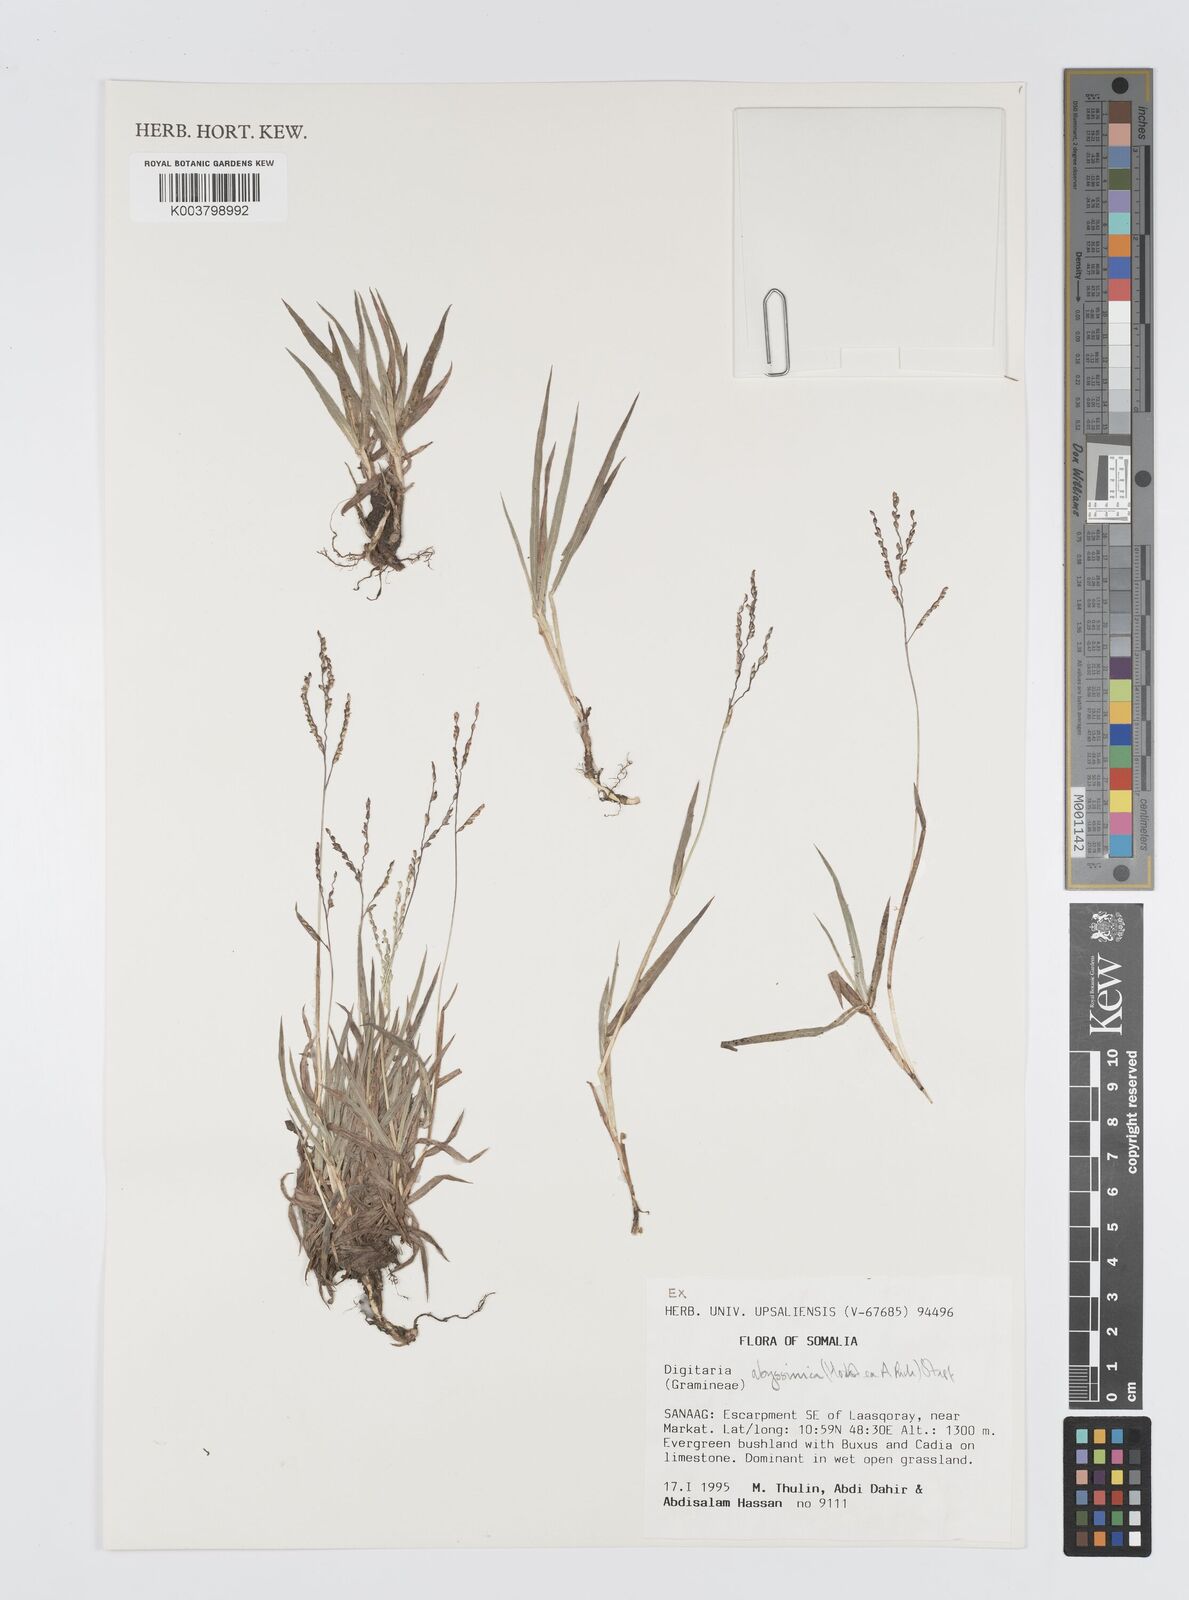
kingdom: Plantae
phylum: Tracheophyta
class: Liliopsida
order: Poales
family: Poaceae
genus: Digitaria
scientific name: Digitaria abyssinica
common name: African couchgrass
